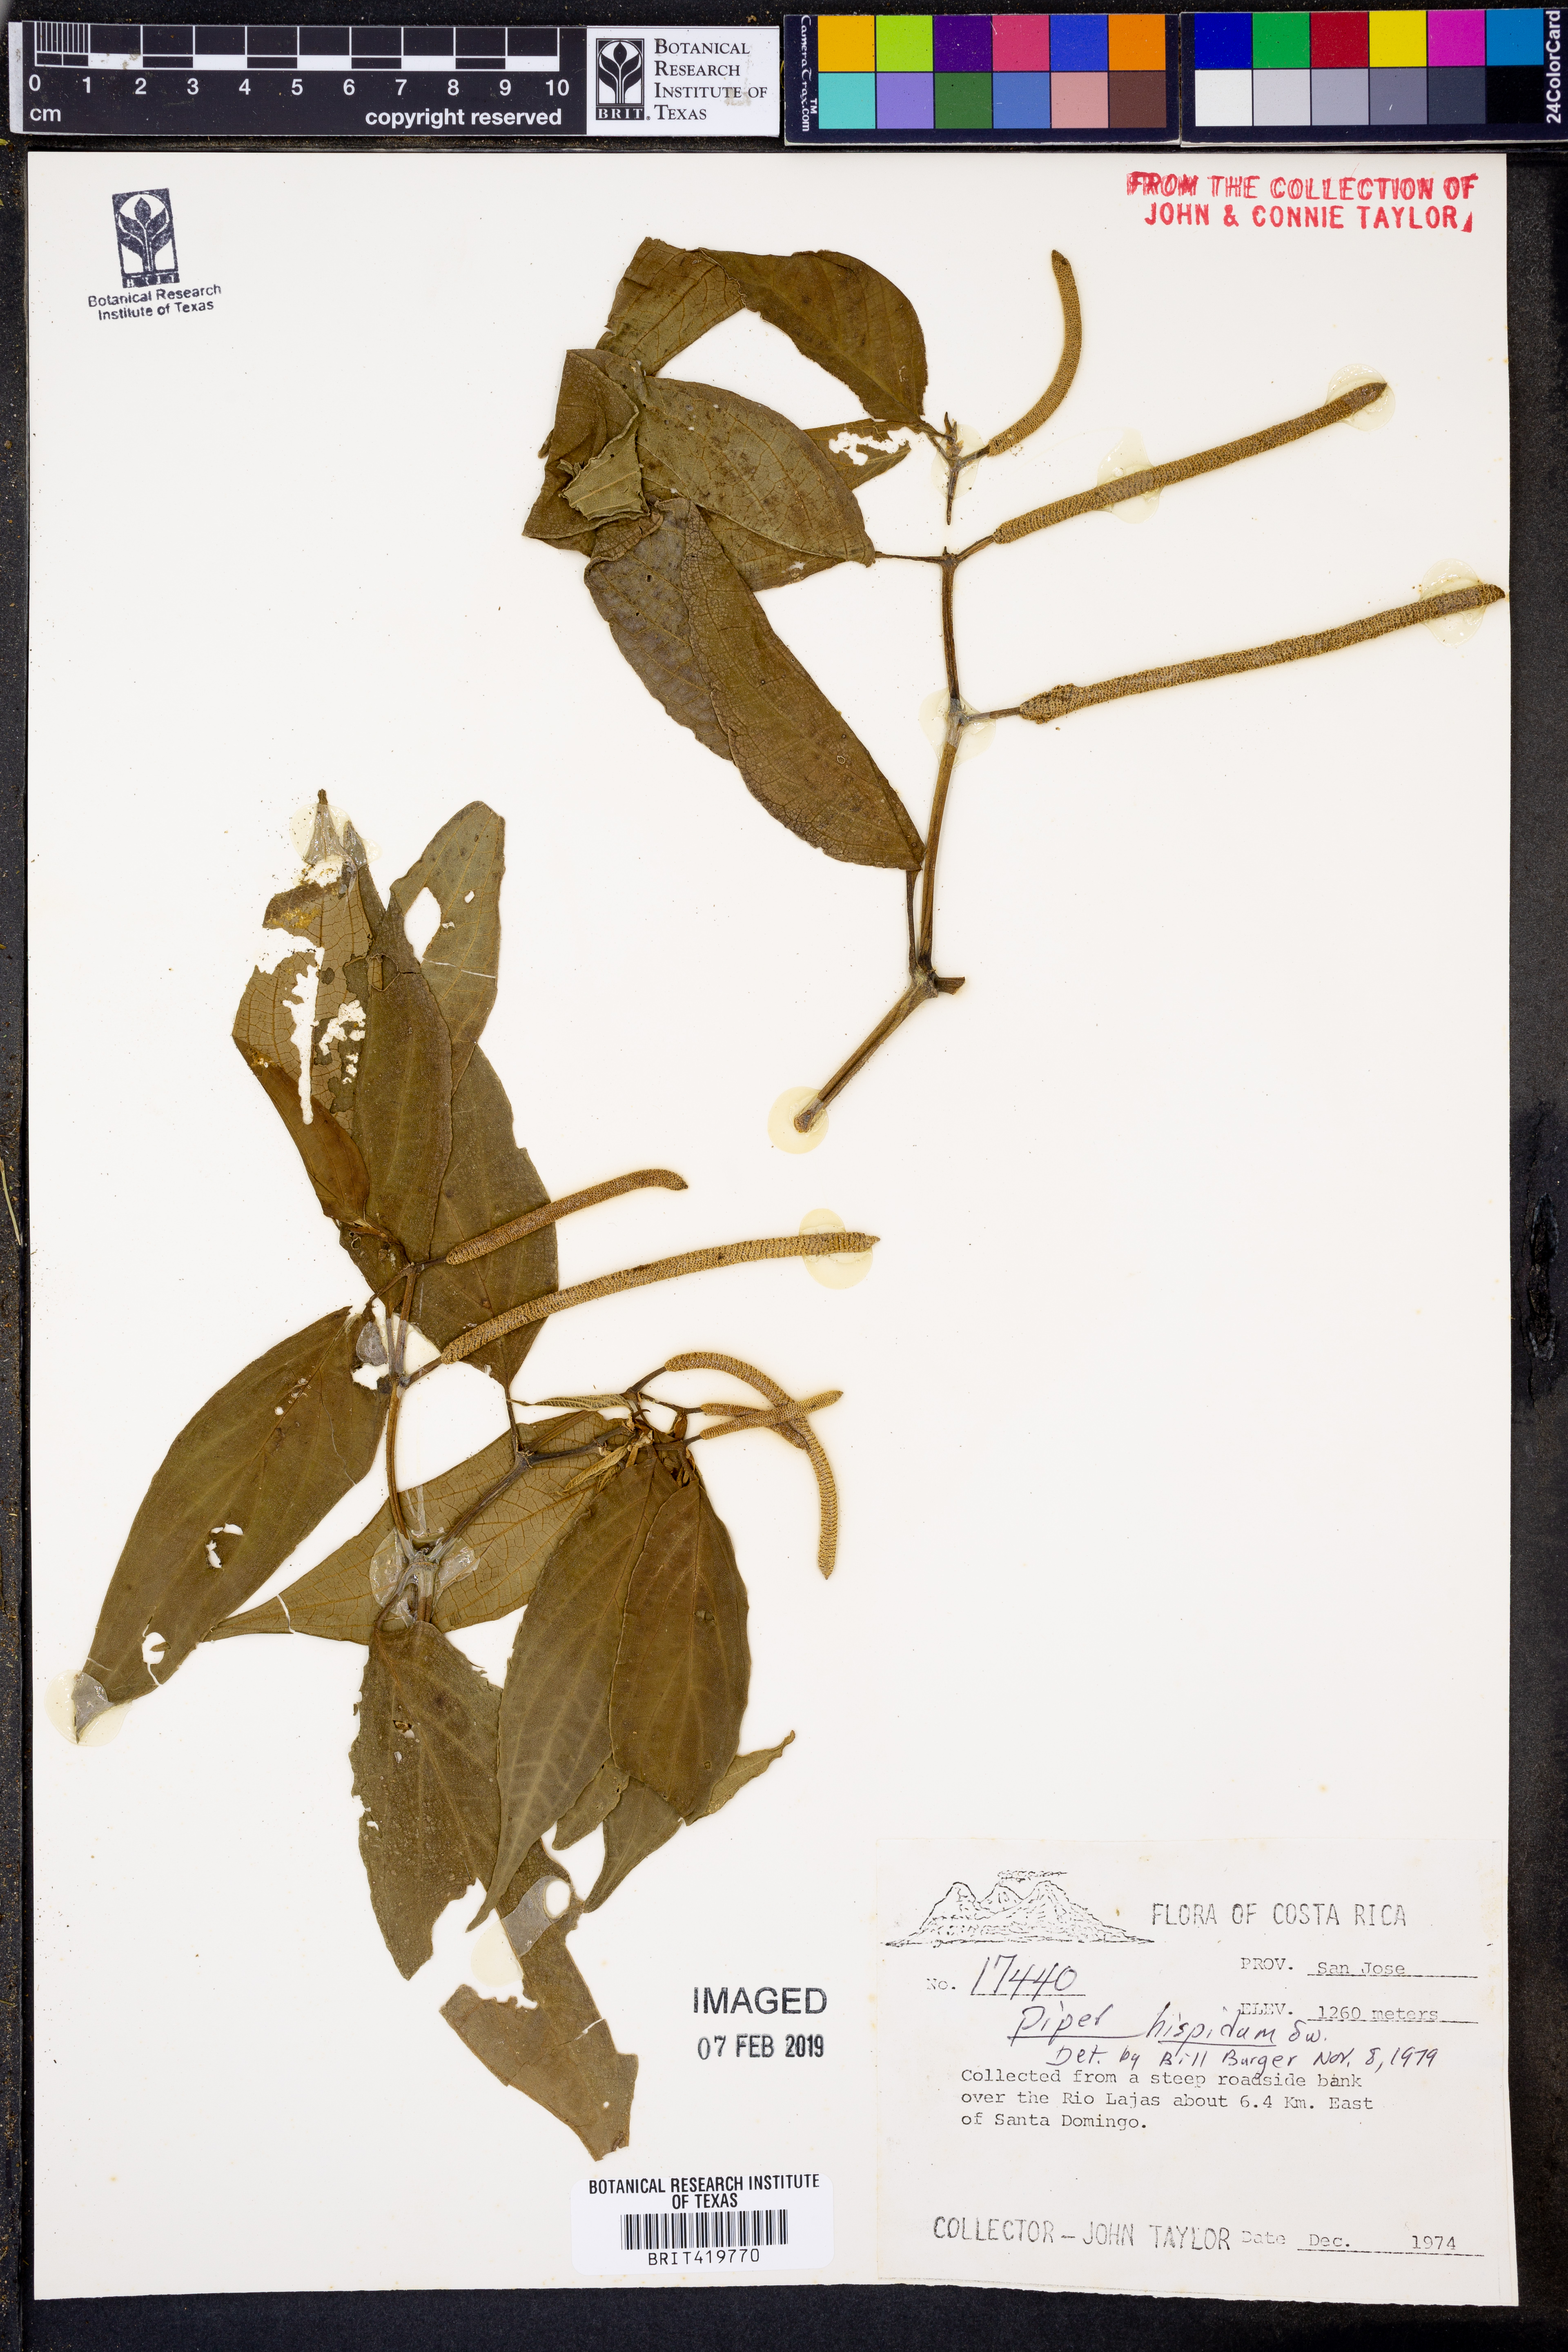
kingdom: Plantae
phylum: Tracheophyta
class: Magnoliopsida
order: Piperales
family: Piperaceae
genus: Piper
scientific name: Piper hispidum
